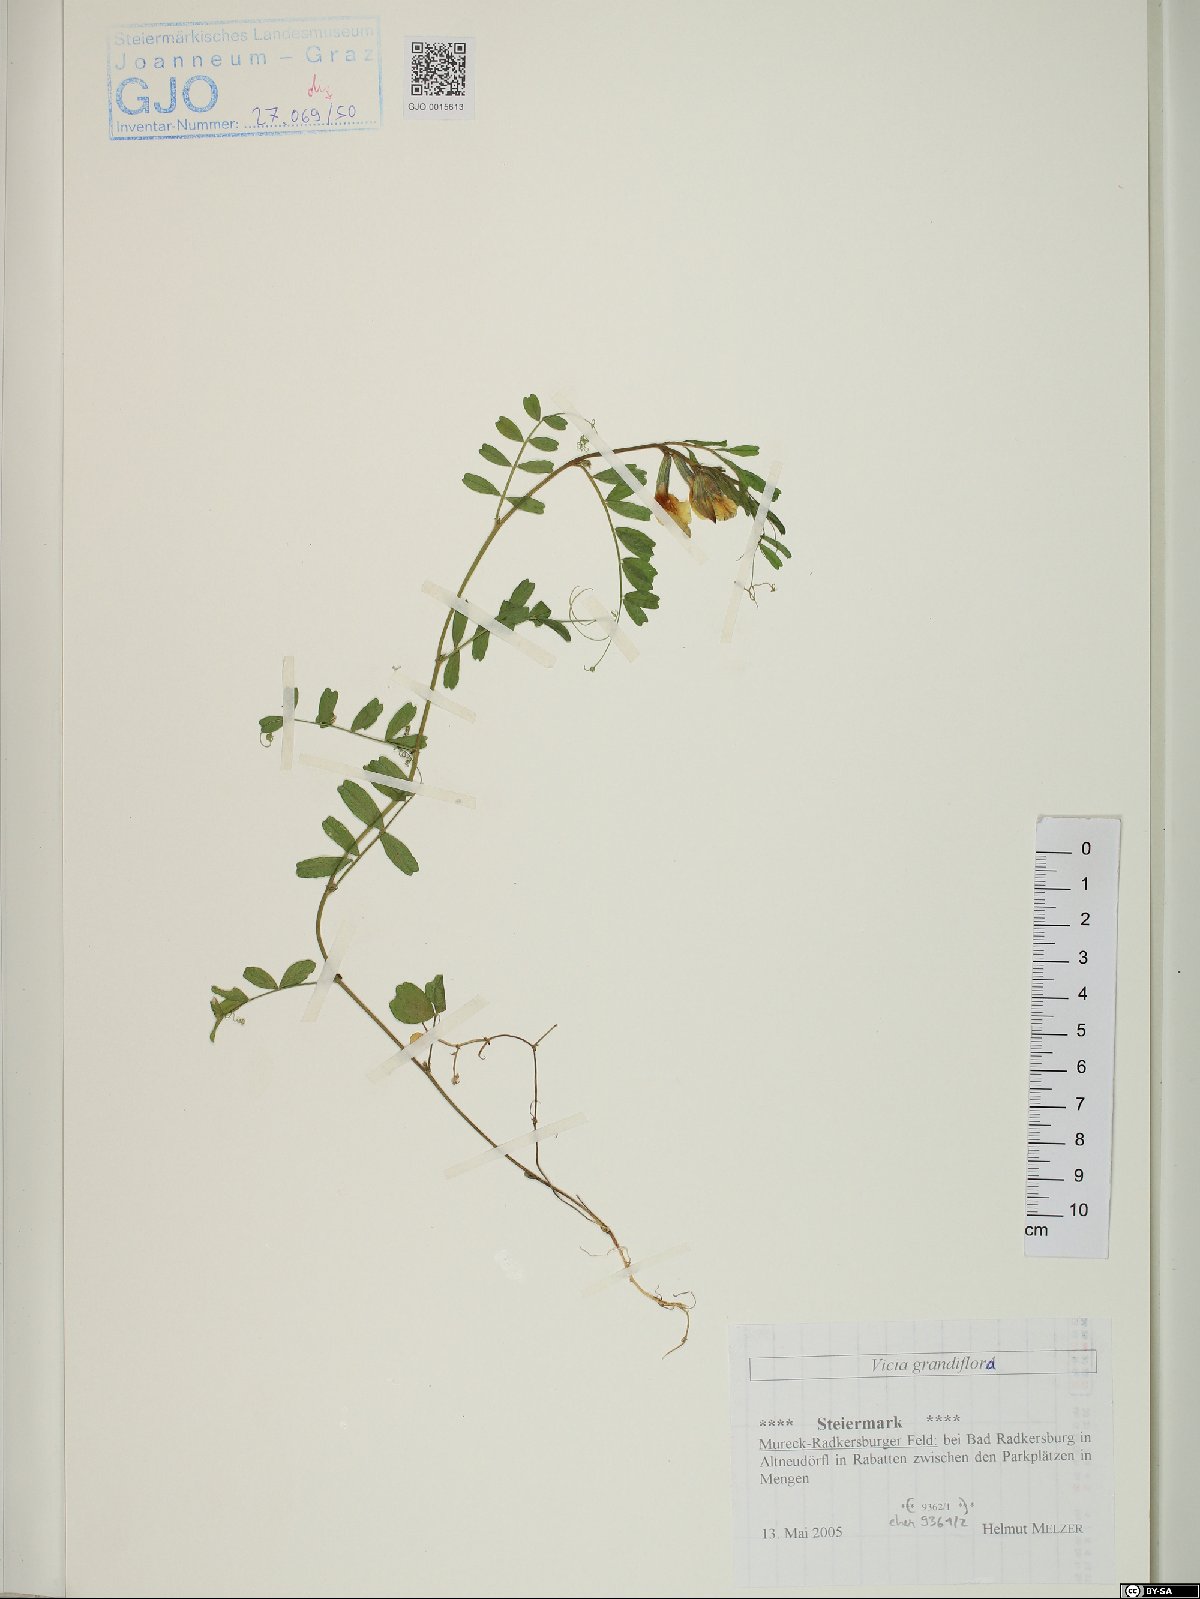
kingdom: Plantae
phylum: Tracheophyta
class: Magnoliopsida
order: Fabales
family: Fabaceae
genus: Vicia
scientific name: Vicia grandiflora
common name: Large yellow vetch
